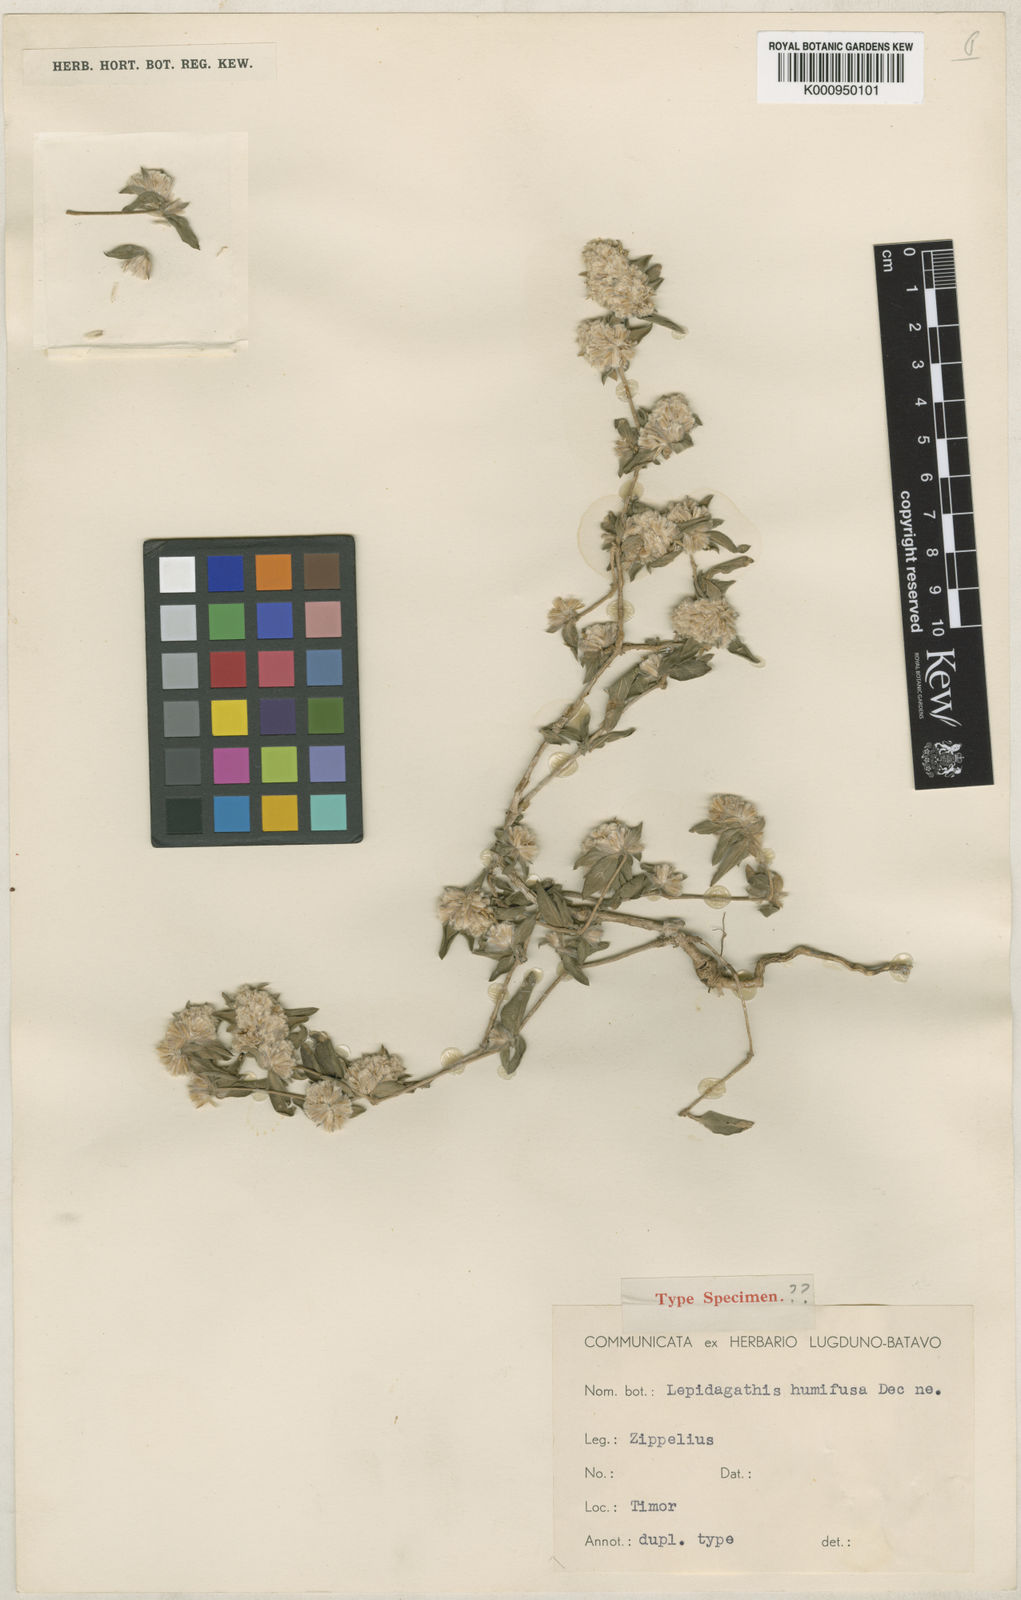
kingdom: Plantae
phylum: Tracheophyta
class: Magnoliopsida
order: Lamiales
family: Acanthaceae
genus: Lepidagathis
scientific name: Lepidagathis humifusa
